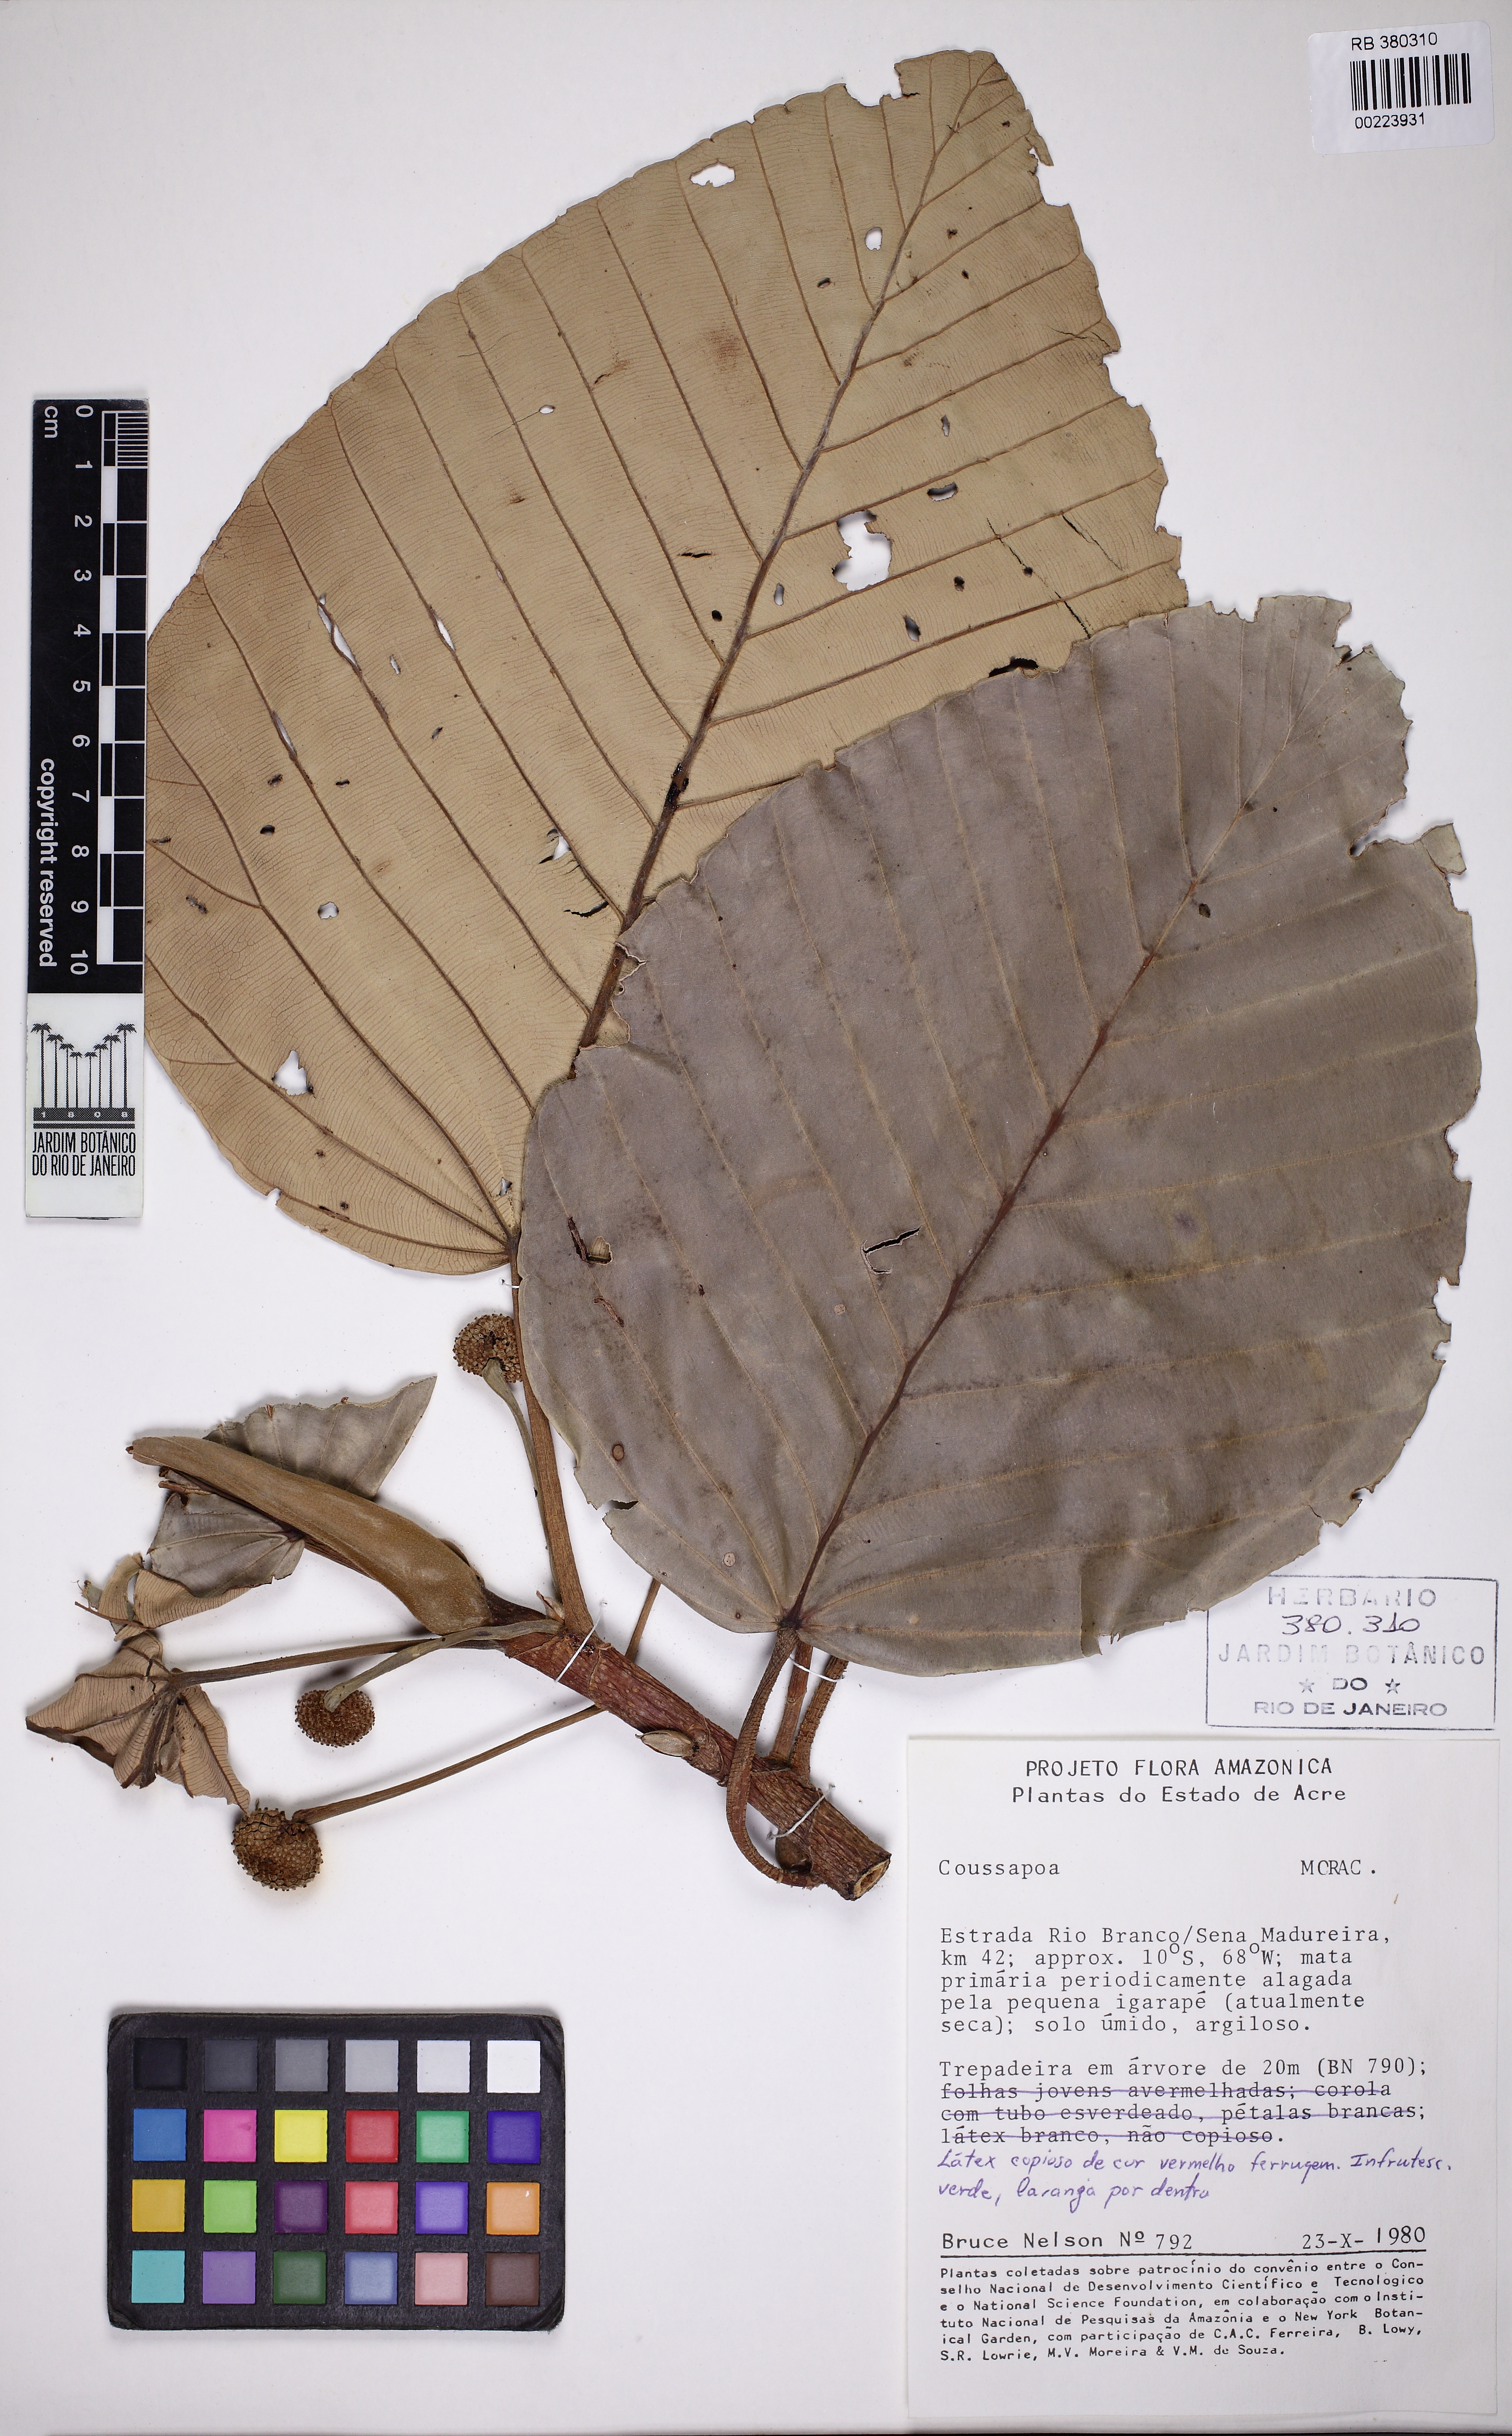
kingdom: Plantae
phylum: Tracheophyta
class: Magnoliopsida
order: Rosales
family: Urticaceae
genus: Coussapoa
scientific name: Coussapoa
